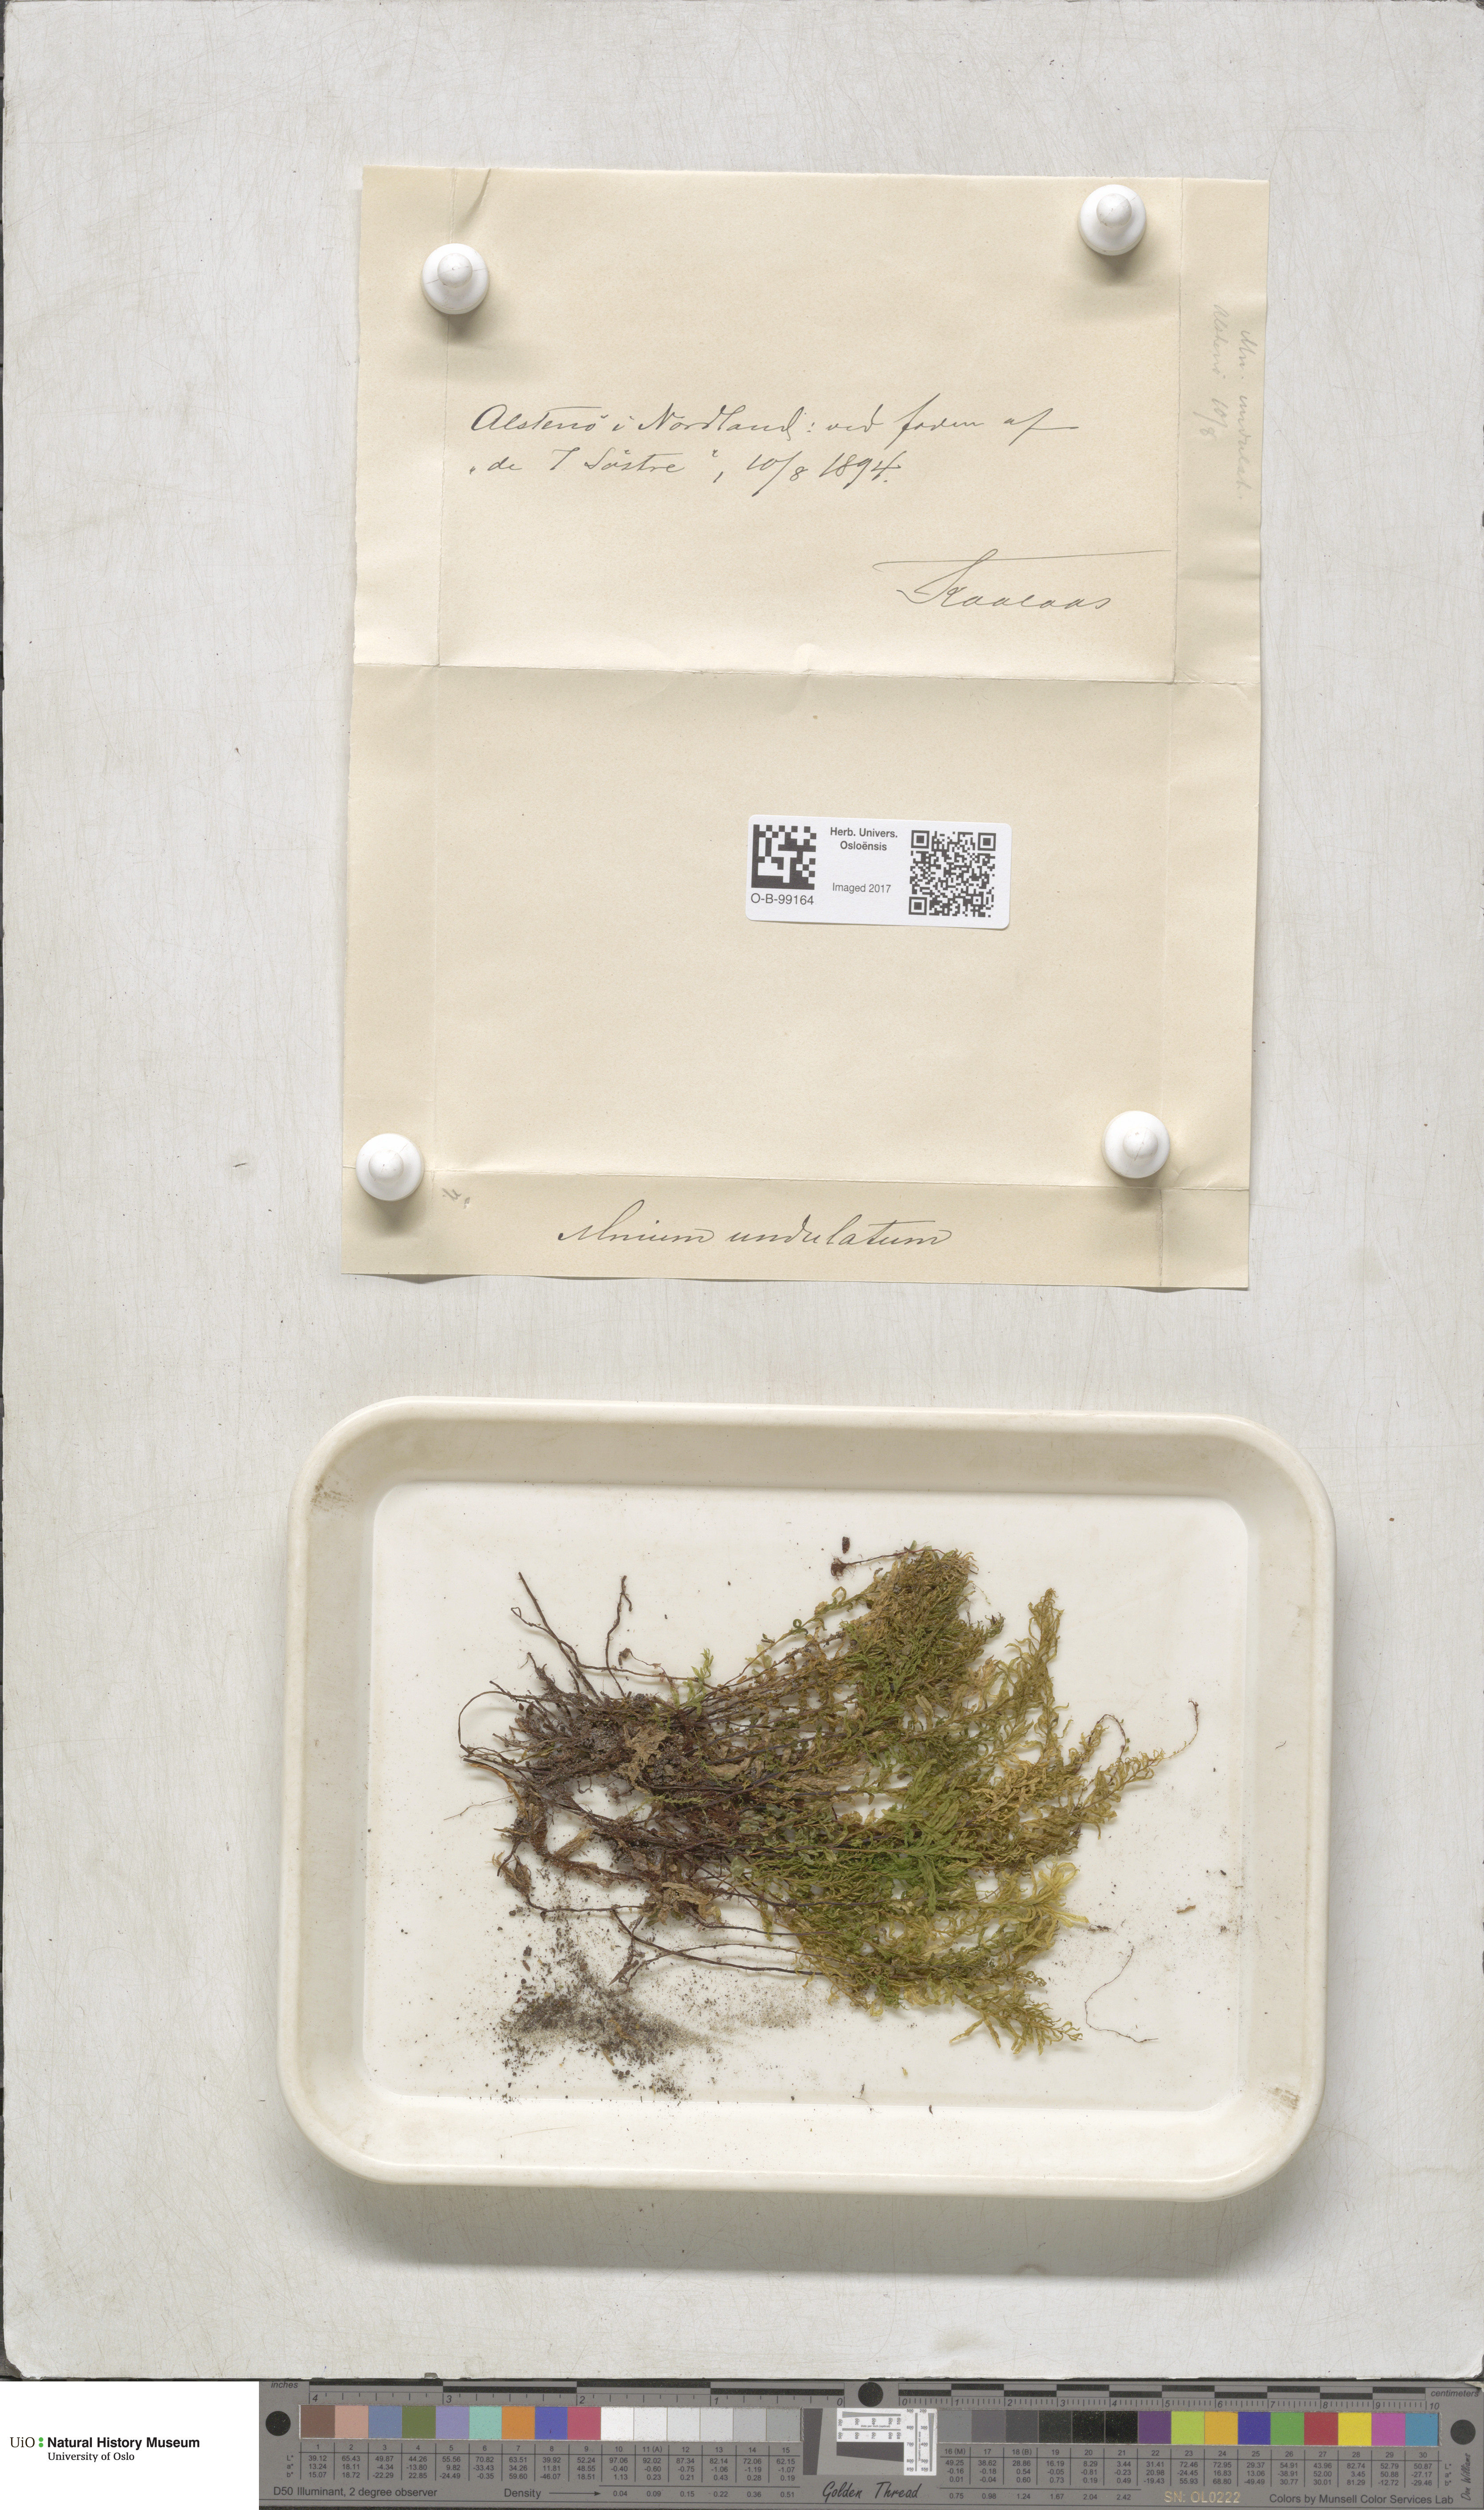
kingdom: Plantae
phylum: Bryophyta
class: Bryopsida
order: Bryales
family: Mniaceae
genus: Plagiomnium
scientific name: Plagiomnium undulatum
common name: Hart's-tongue thyme-moss
